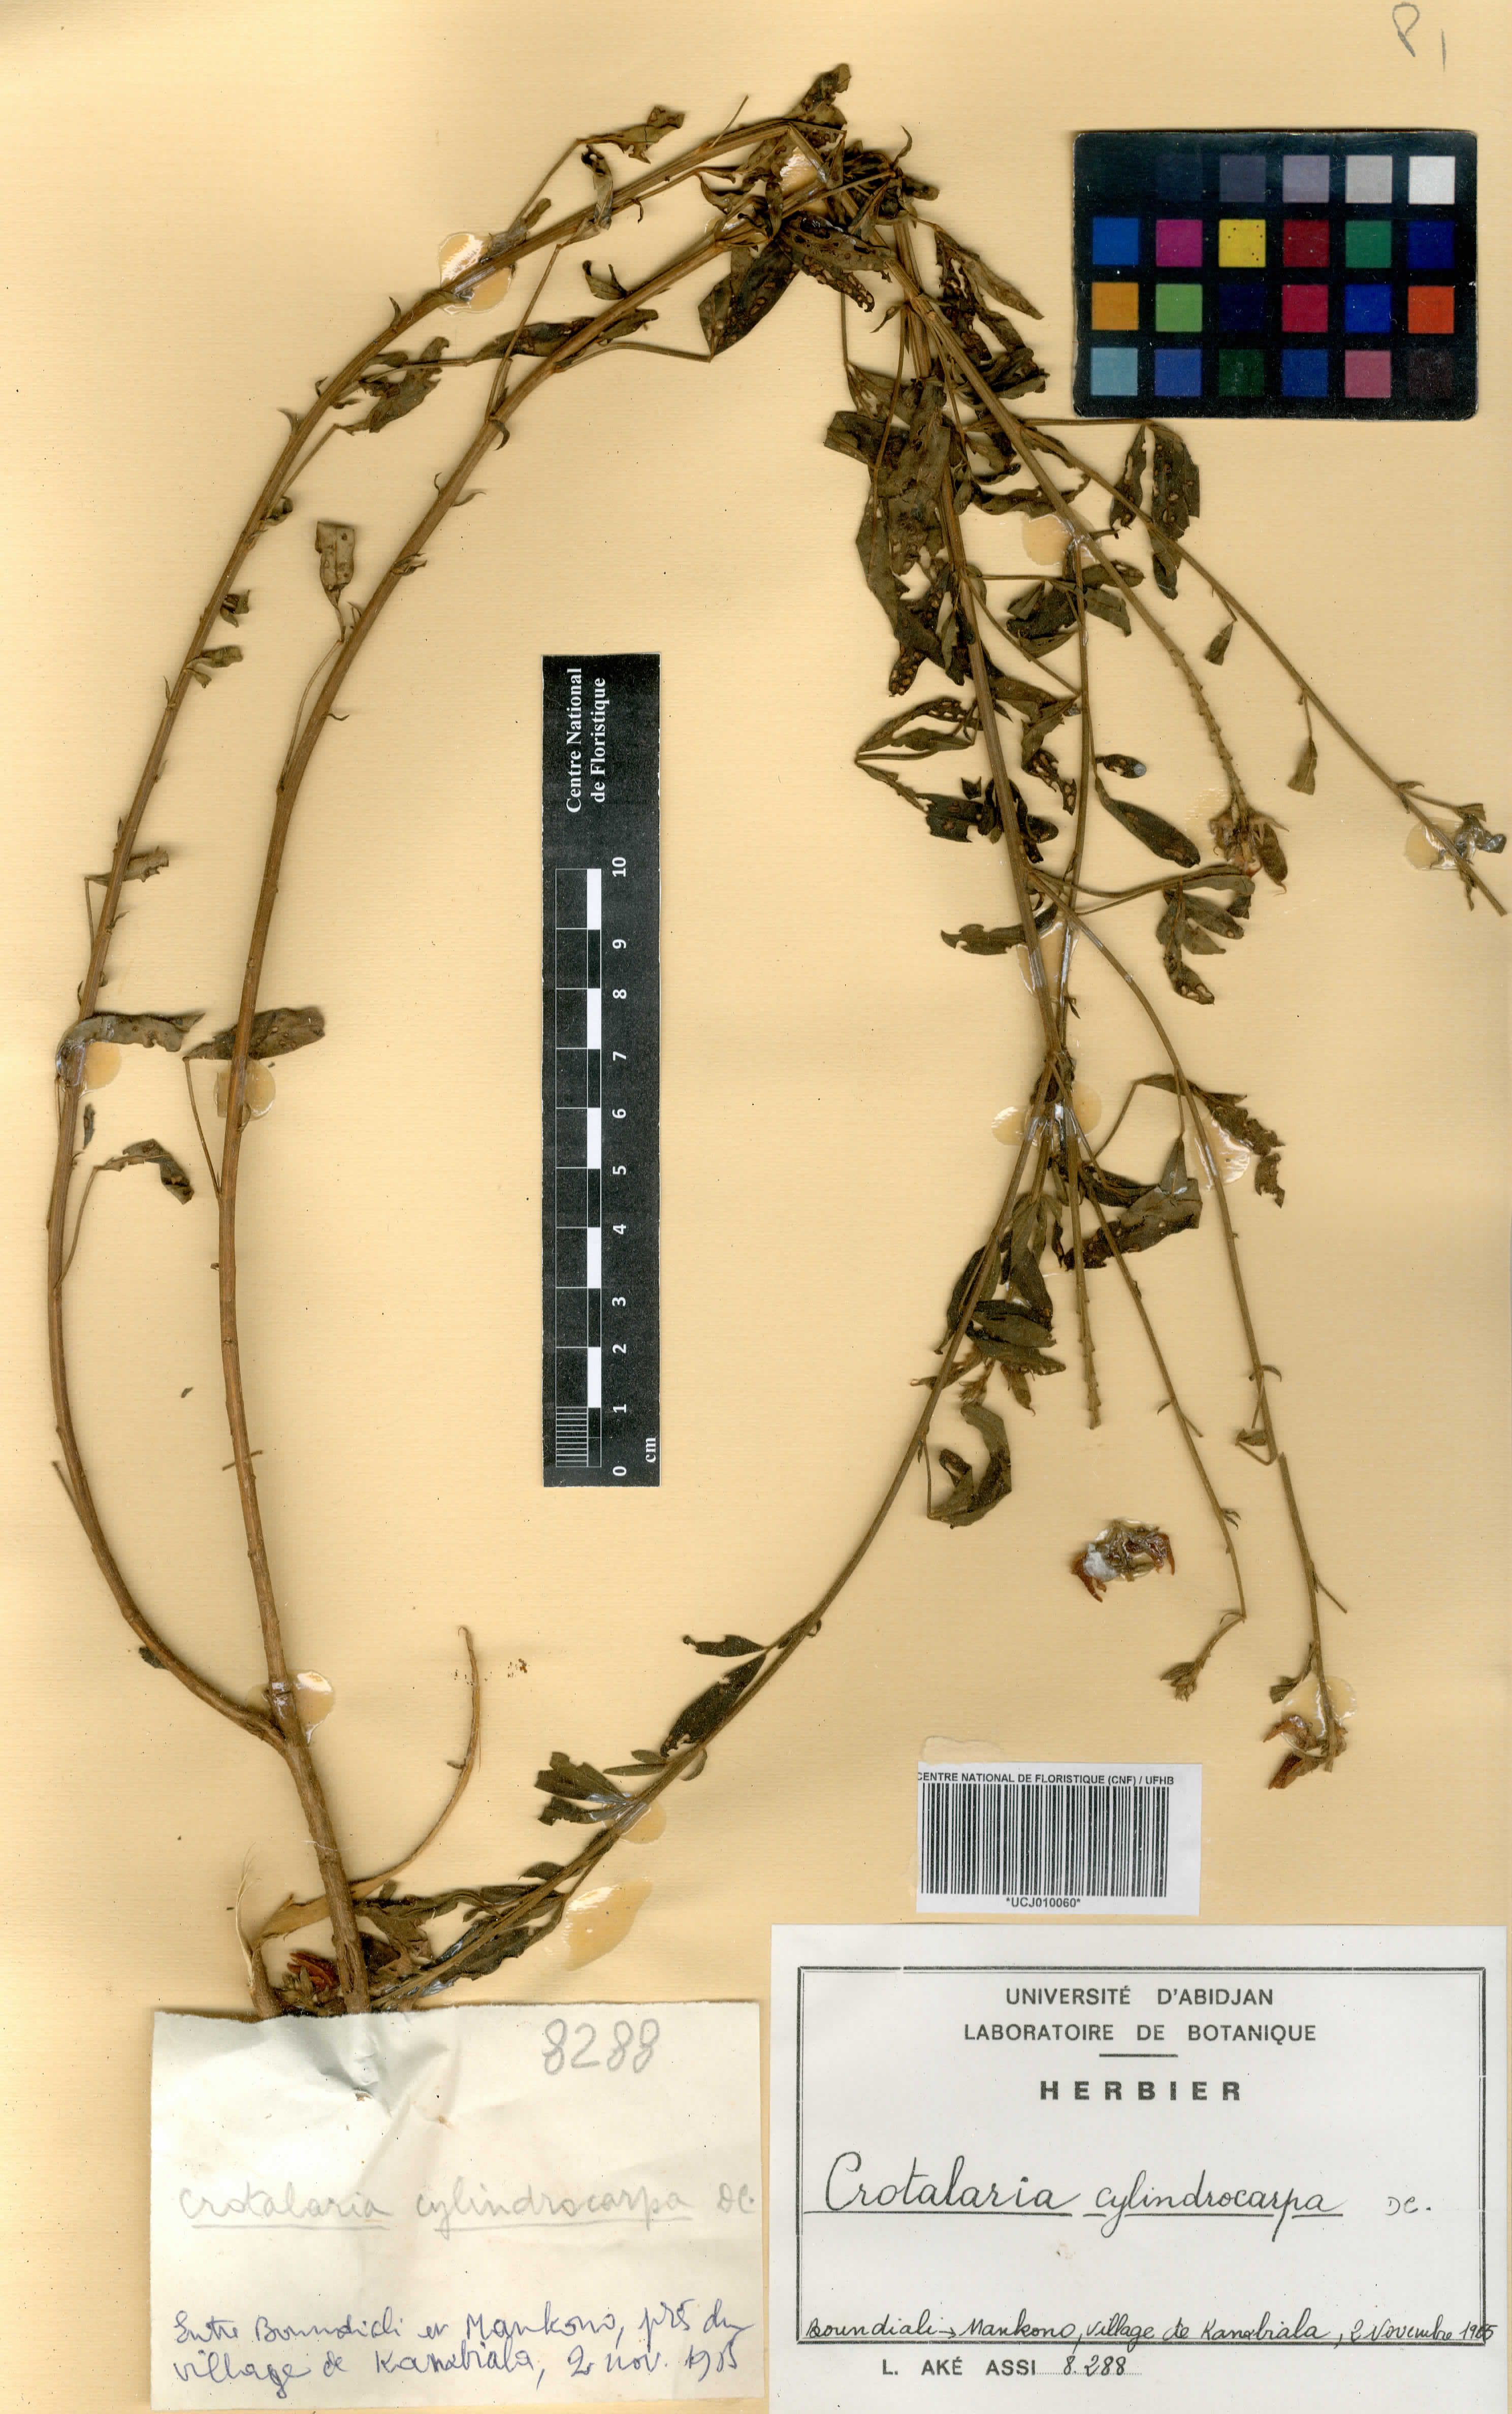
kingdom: Plantae
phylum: Tracheophyta
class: Magnoliopsida
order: Fabales
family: Fabaceae
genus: Crotalaria
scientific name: Crotalaria cylindrocarpa
